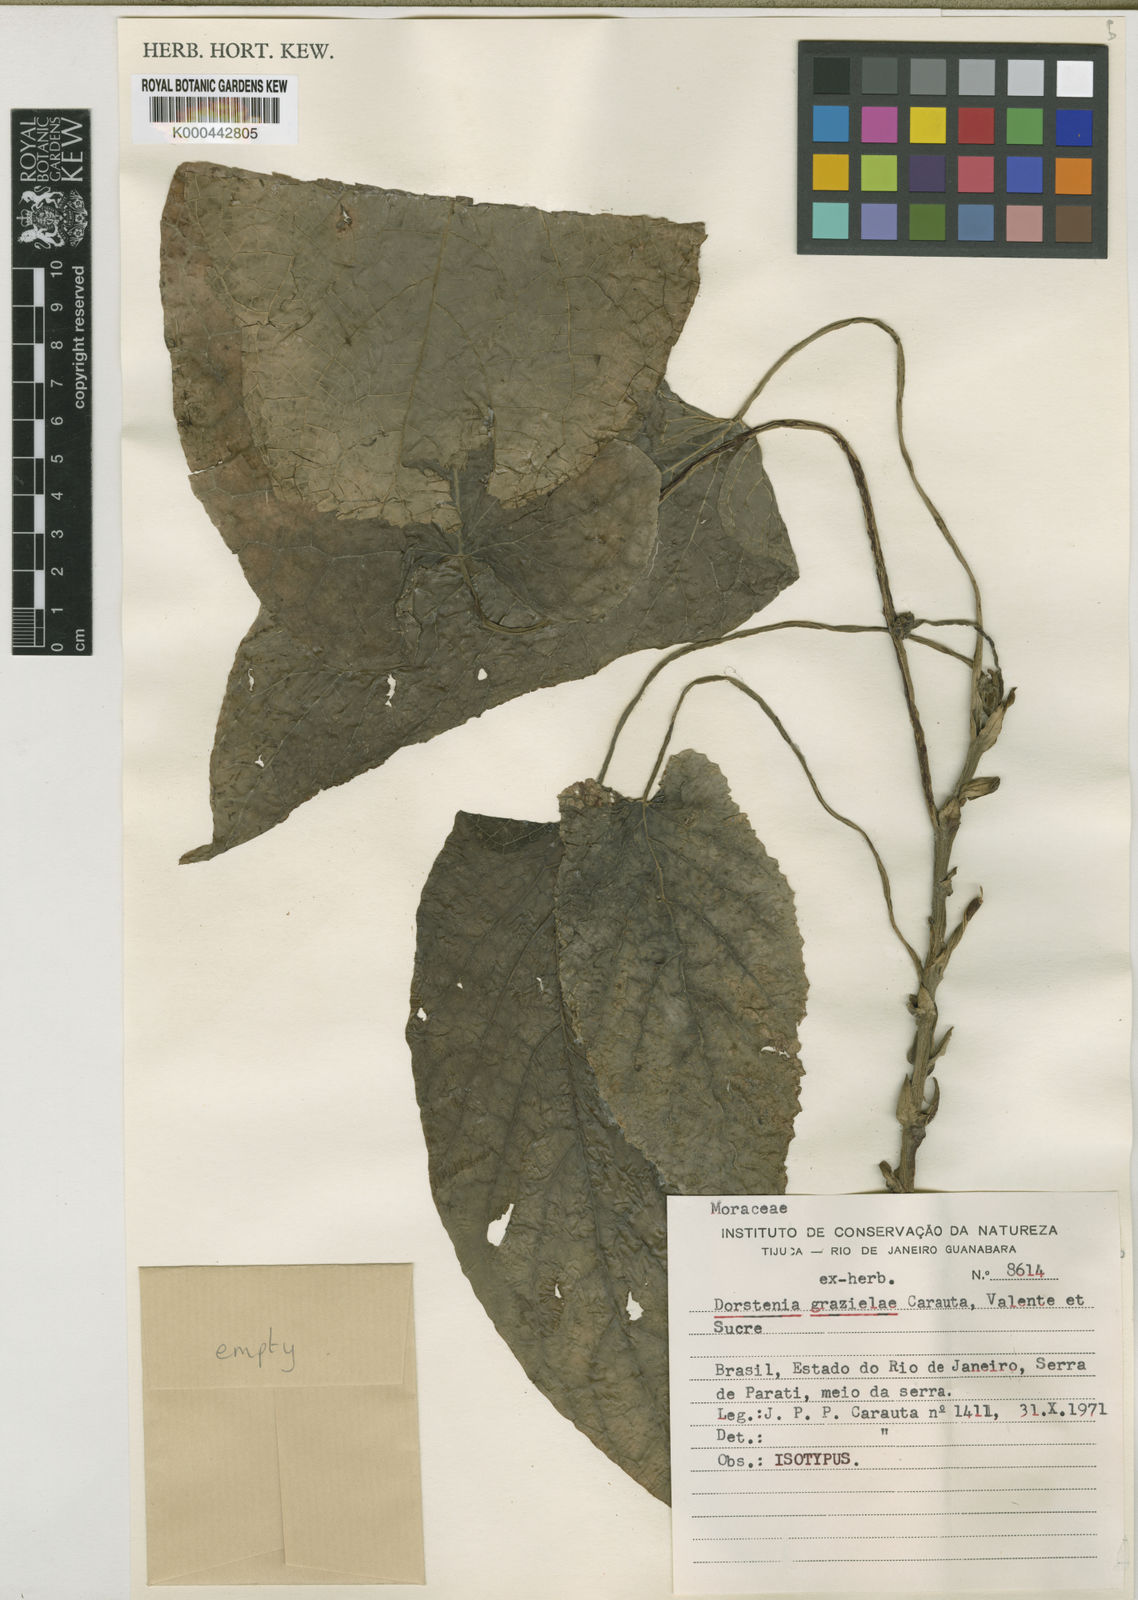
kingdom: Plantae
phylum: Tracheophyta
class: Magnoliopsida
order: Rosales
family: Moraceae
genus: Dorstenia
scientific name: Dorstenia grazielae
